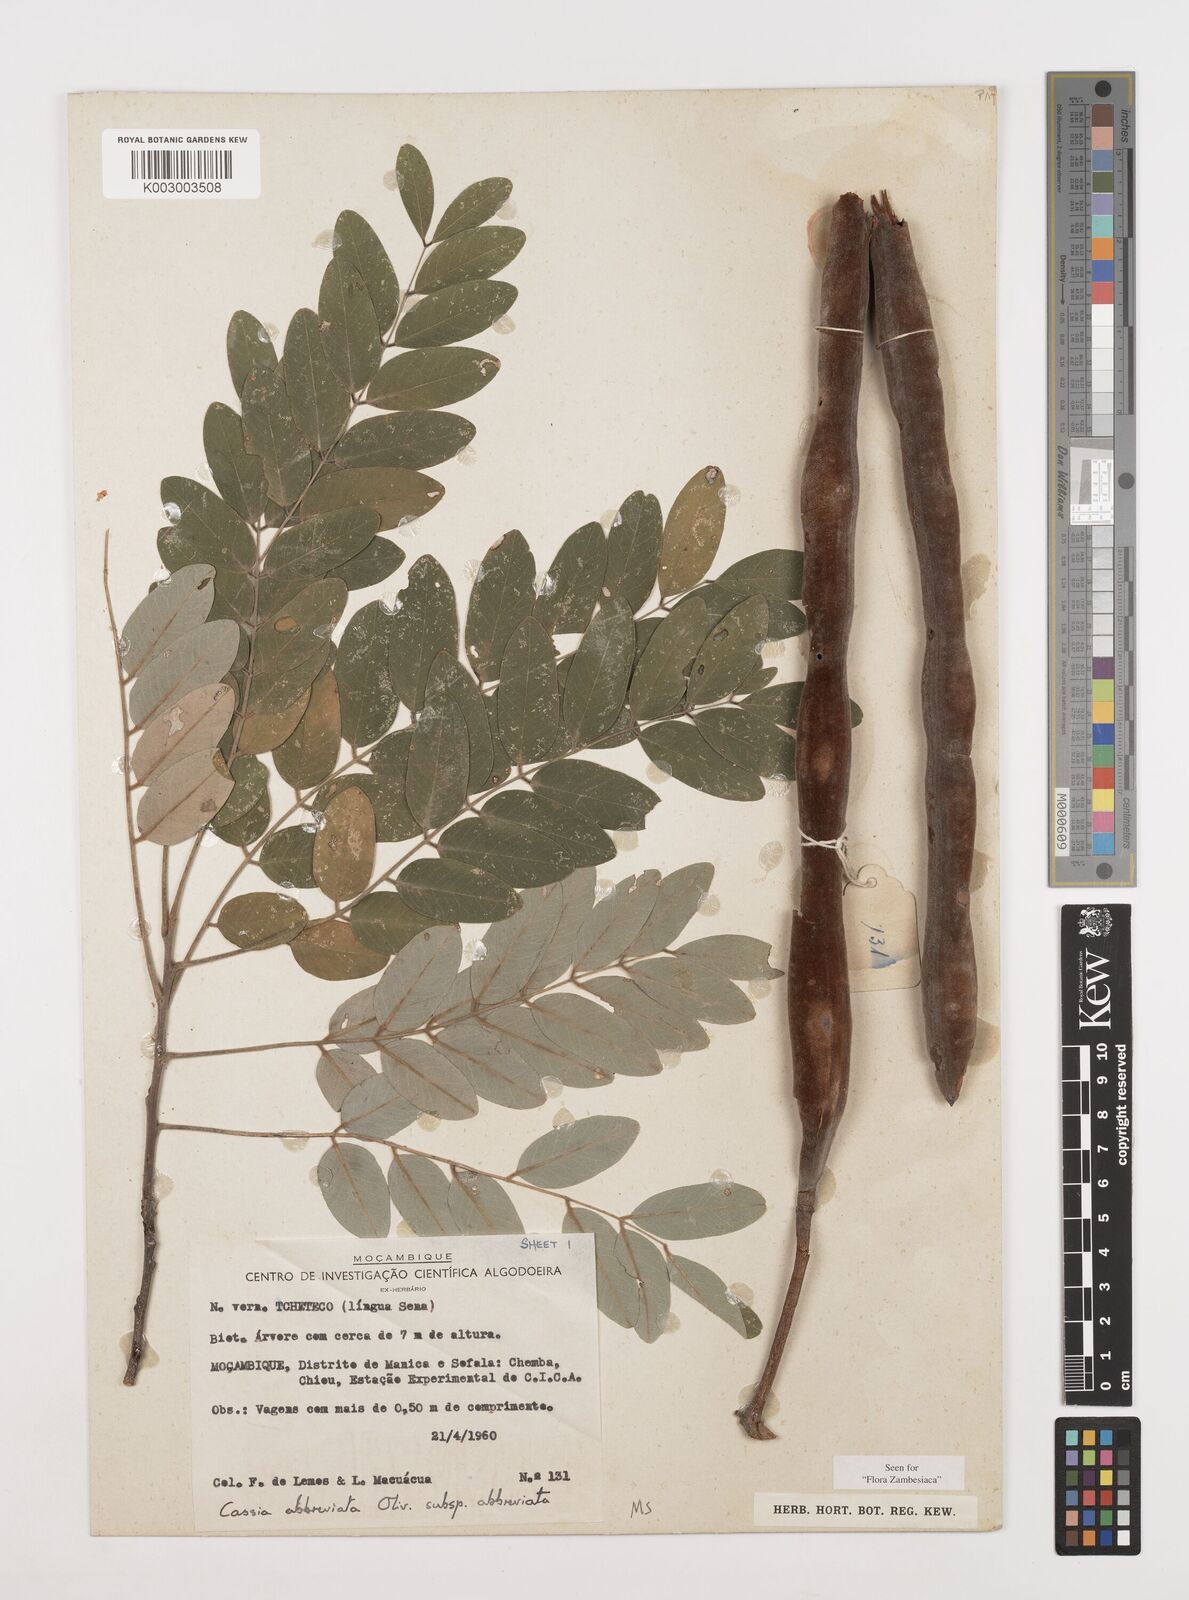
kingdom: Plantae
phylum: Tracheophyta
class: Magnoliopsida
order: Fabales
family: Fabaceae
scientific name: Fabaceae
